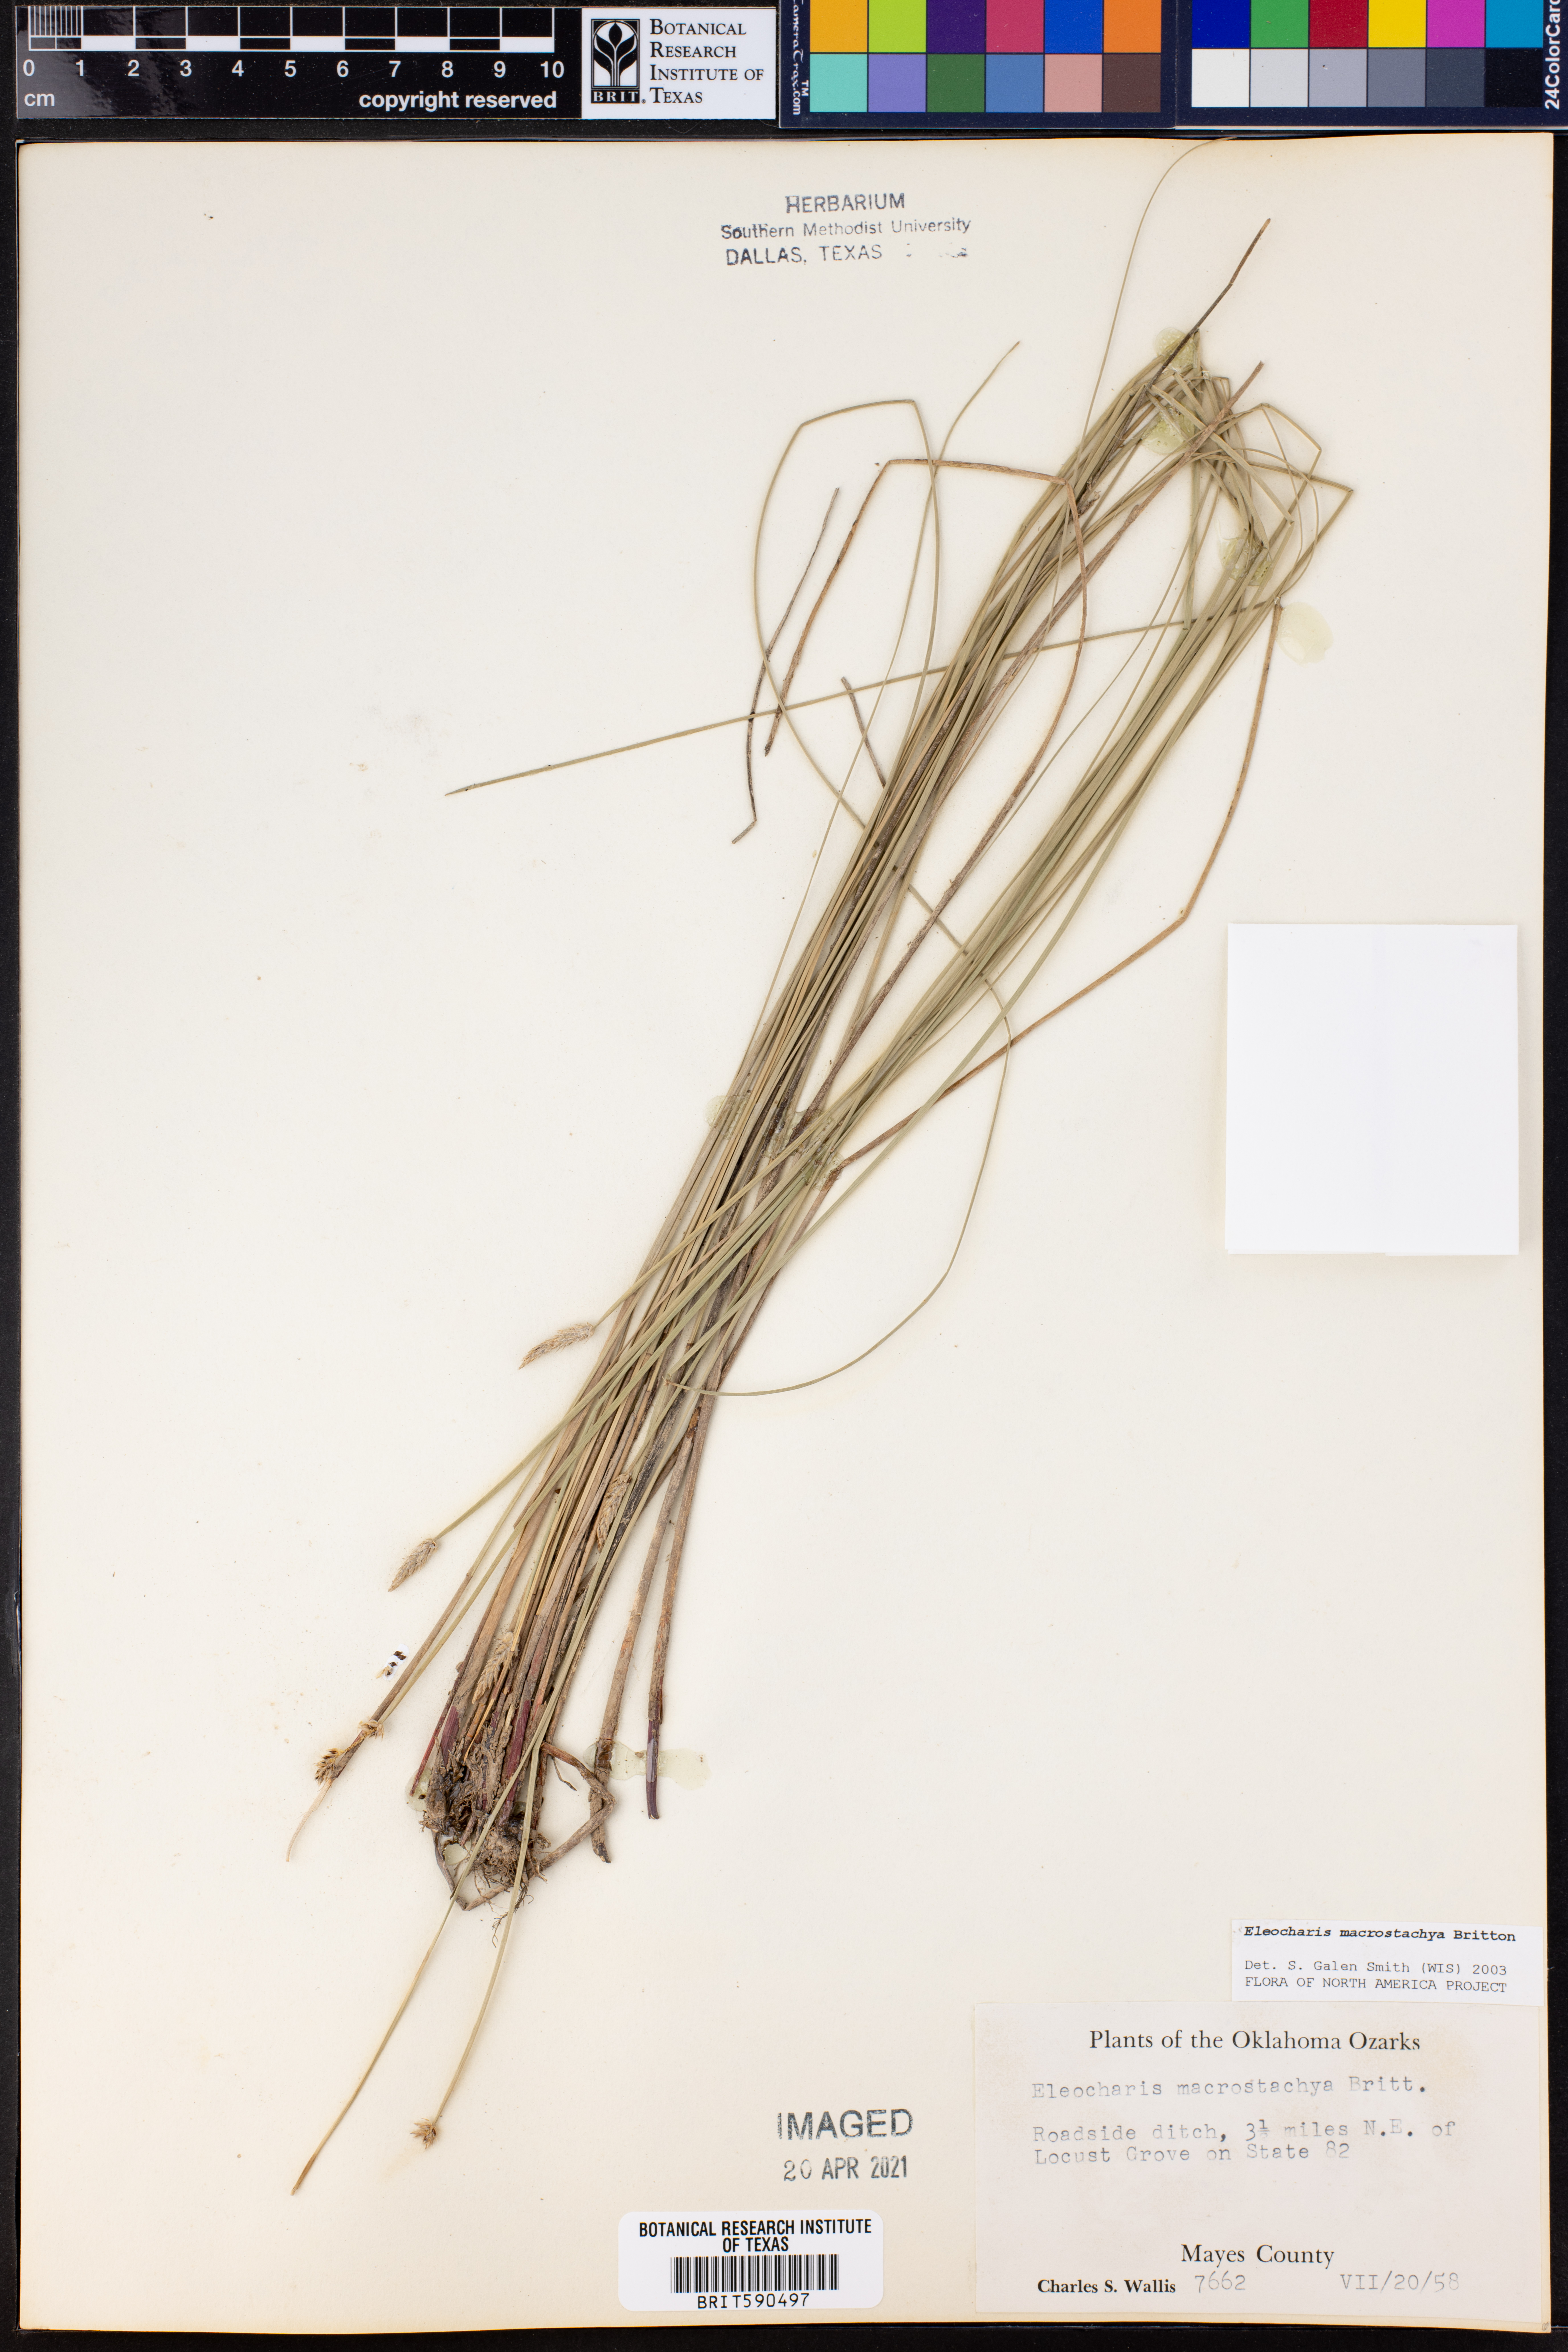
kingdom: Plantae
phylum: Tracheophyta
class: Liliopsida
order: Poales
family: Cyperaceae
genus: Eleocharis
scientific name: Eleocharis macrostachya
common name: Pale spikerush
